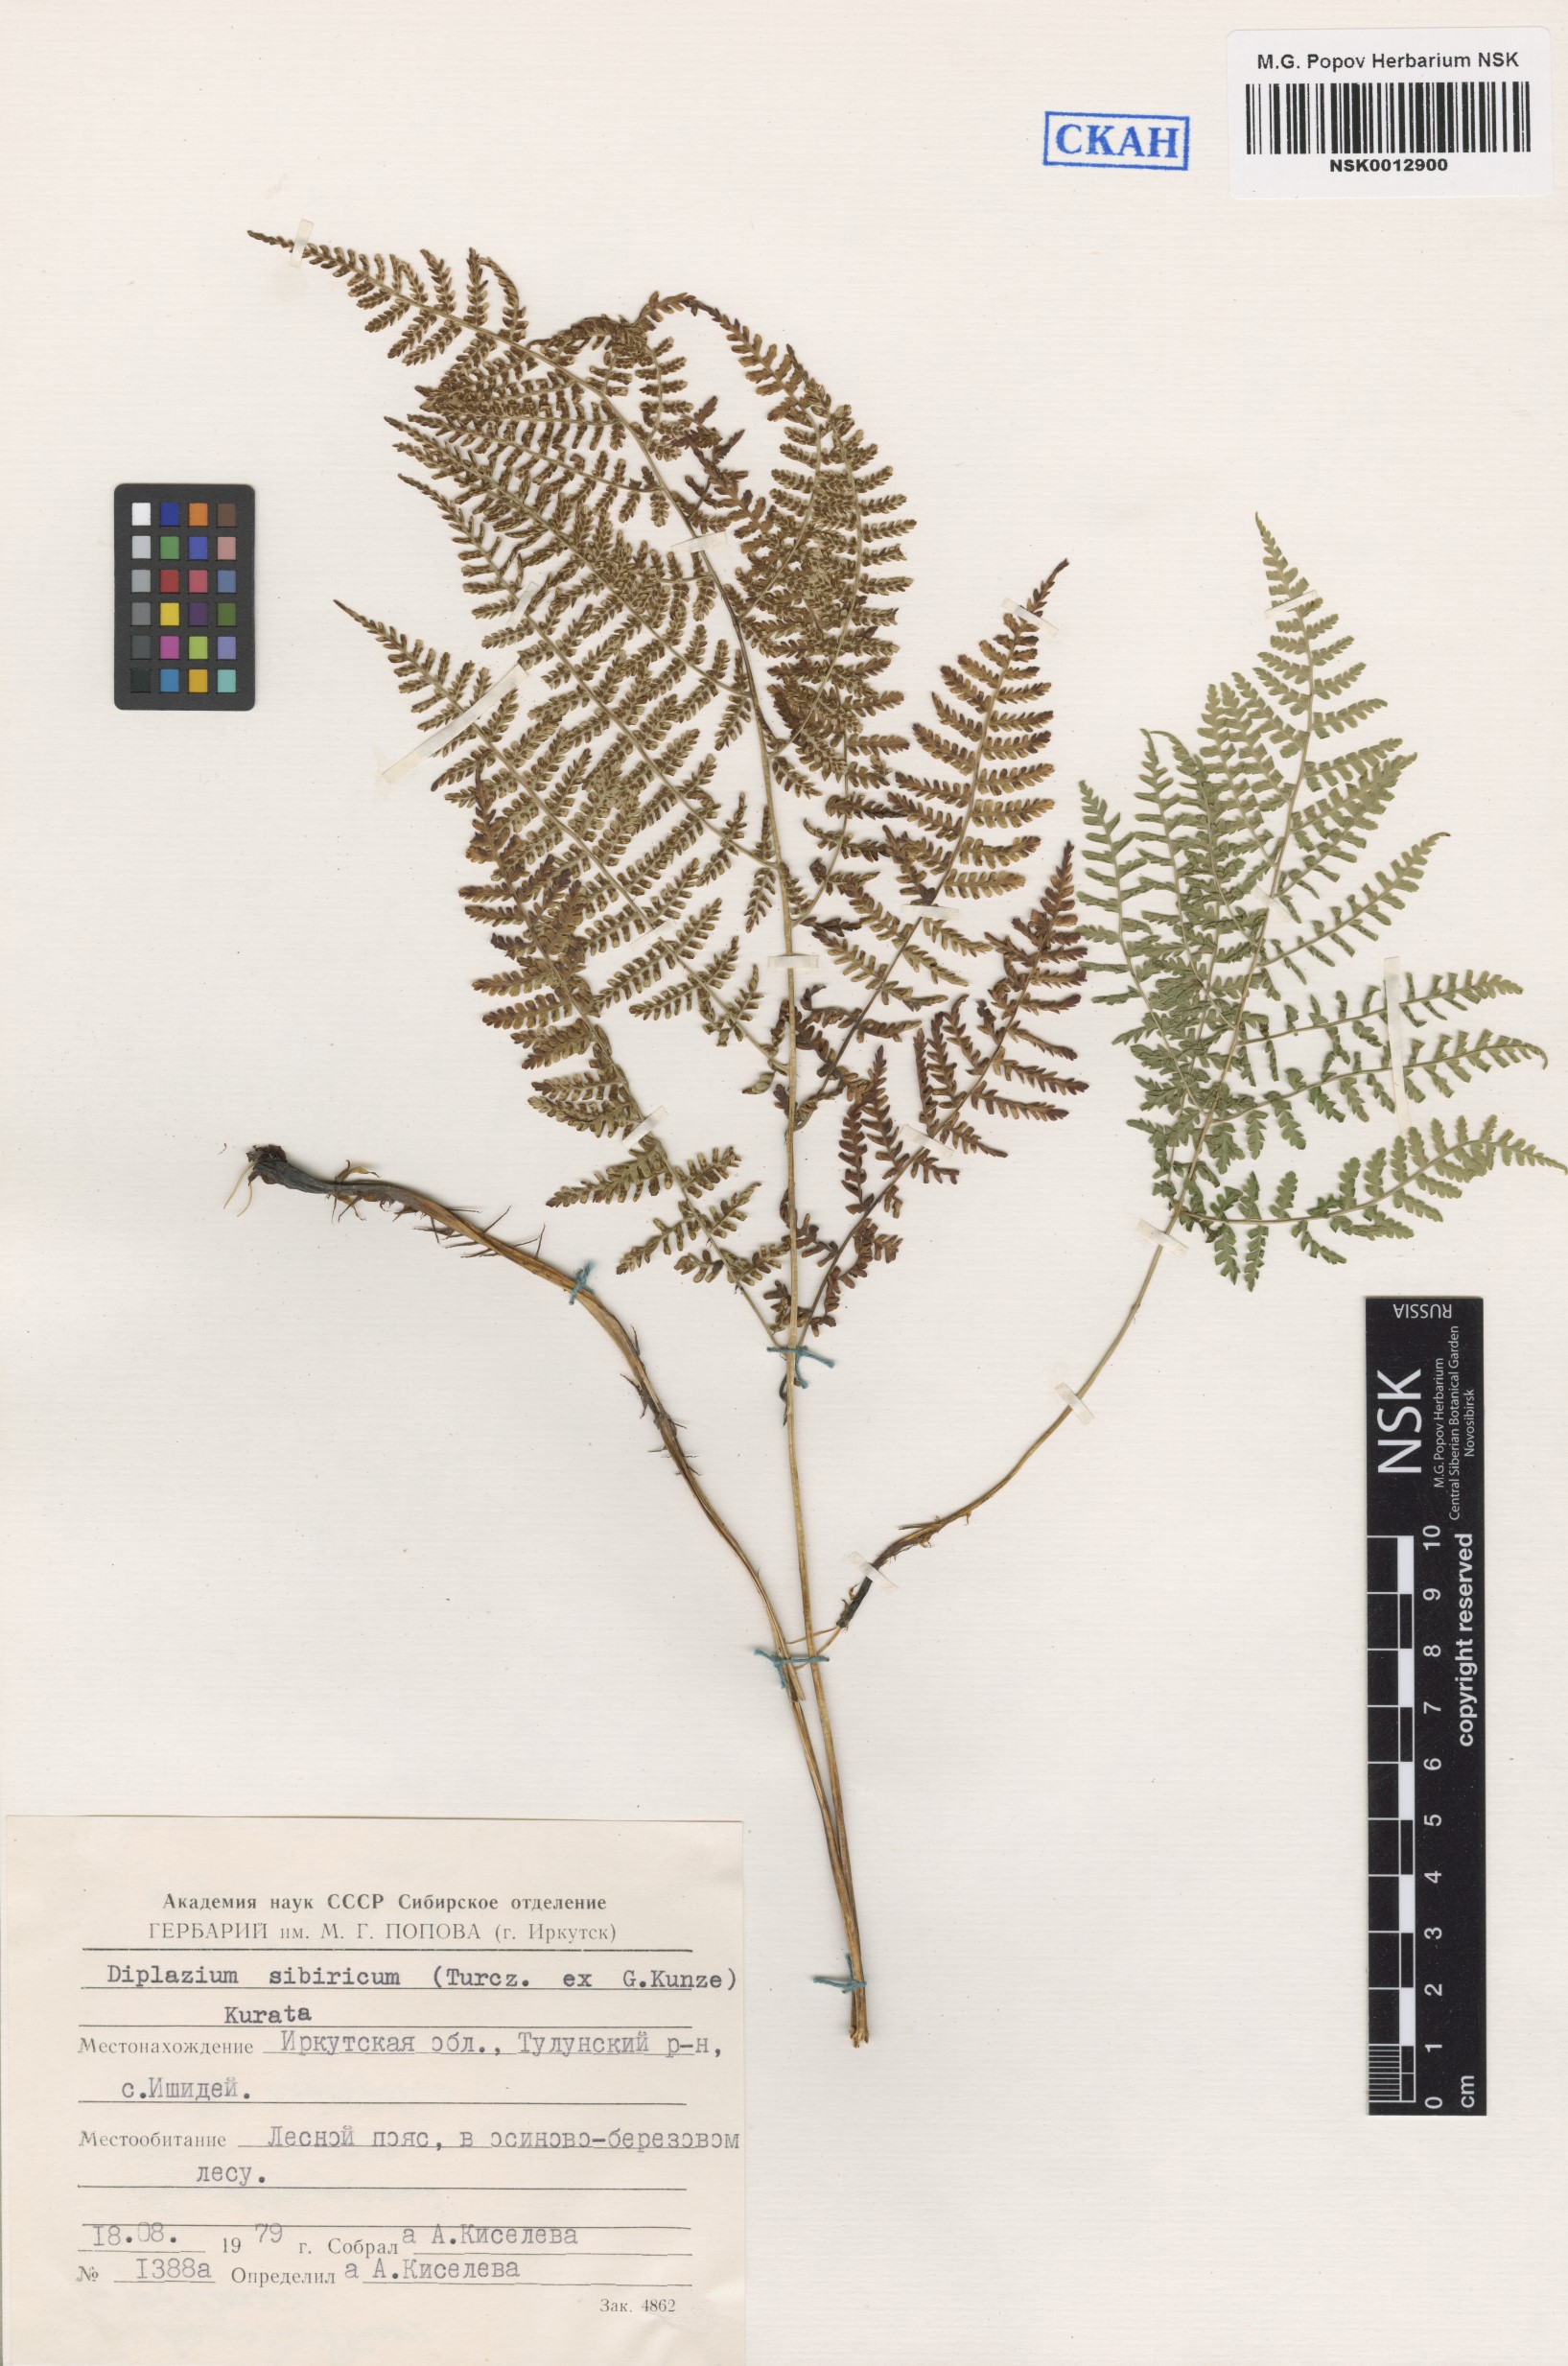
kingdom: Plantae
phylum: Tracheophyta
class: Polypodiopsida
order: Polypodiales
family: Athyriaceae
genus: Diplazium
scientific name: Diplazium sibiricum
